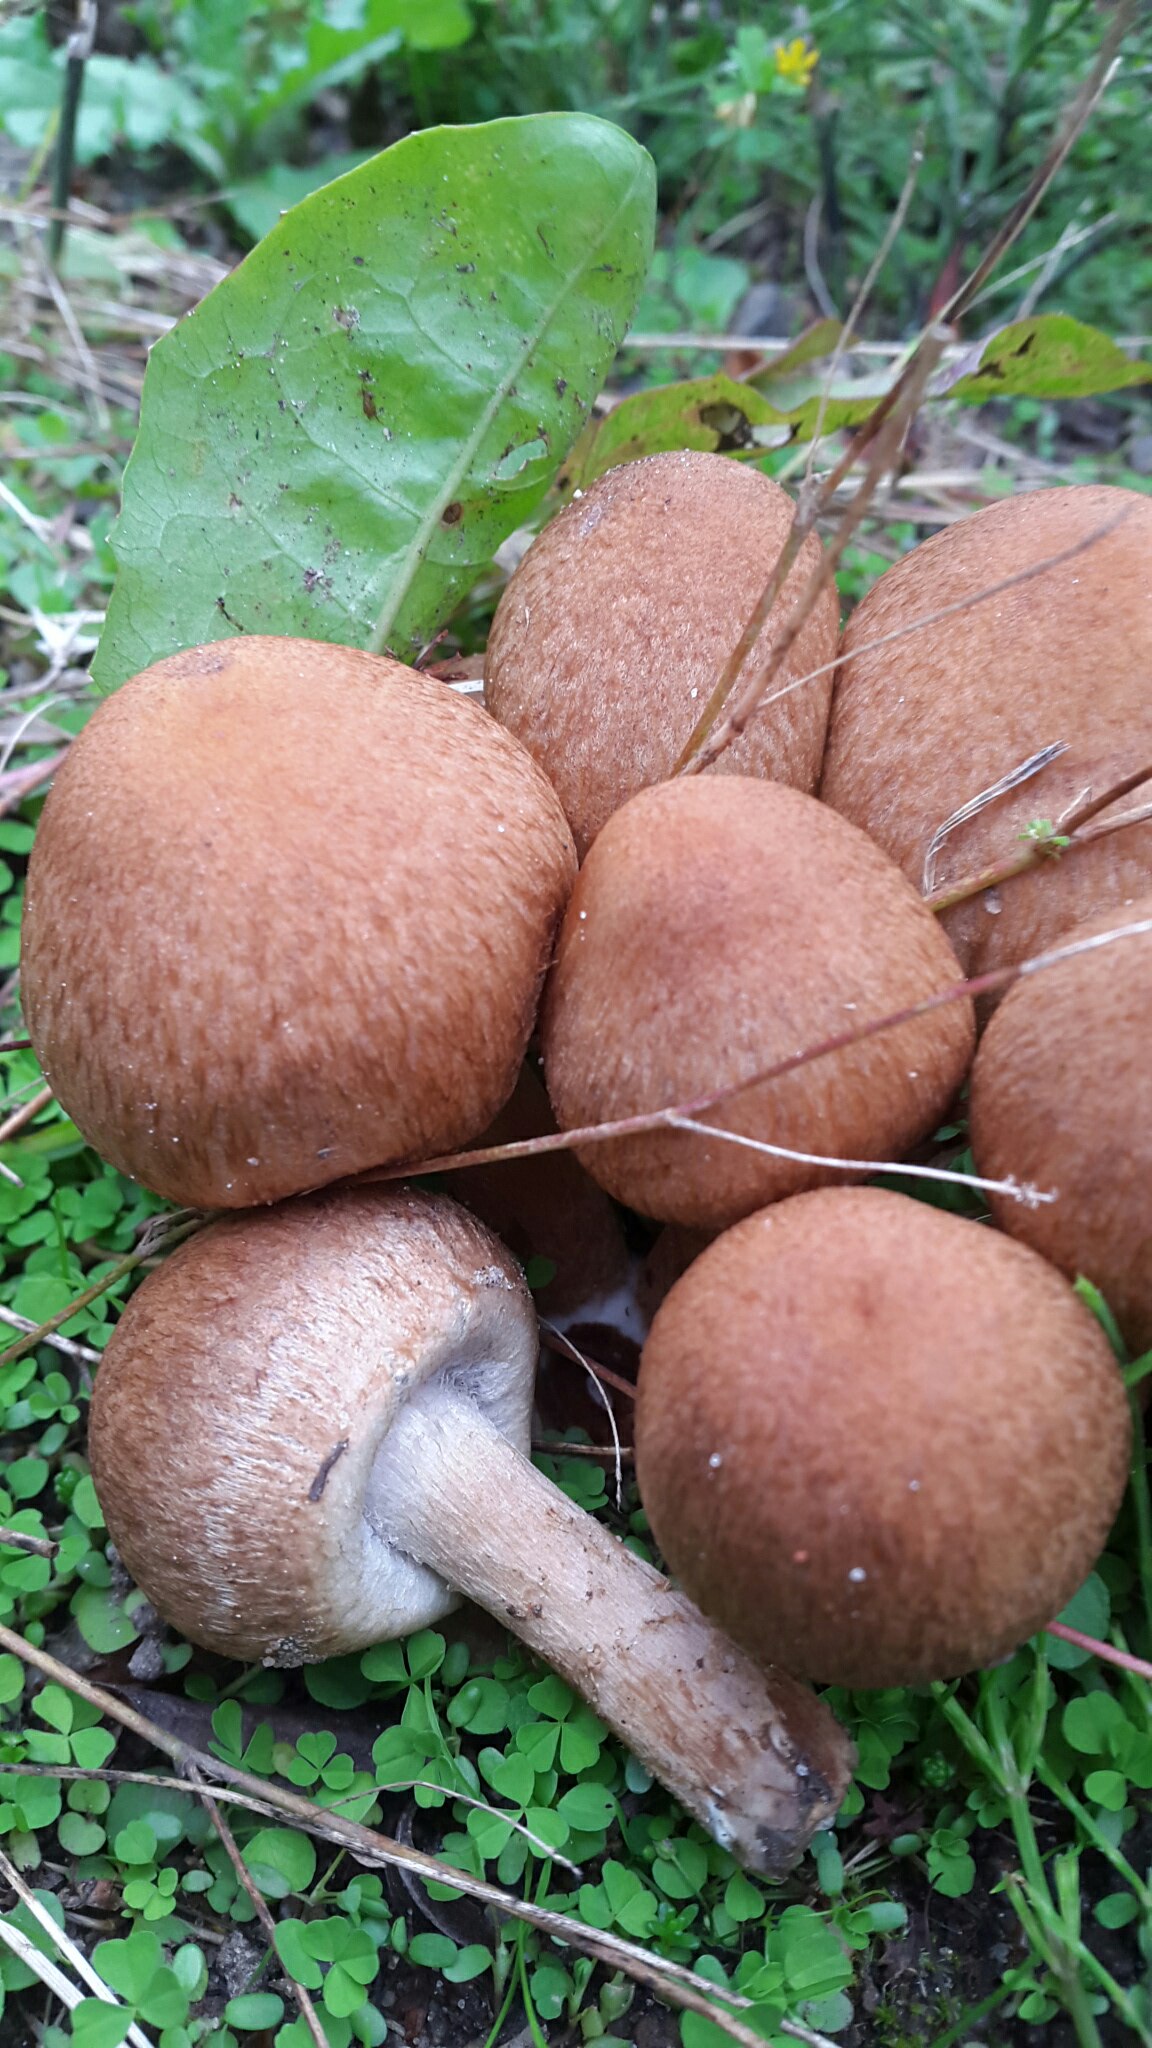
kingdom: Fungi
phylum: Basidiomycota
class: Agaricomycetes
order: Agaricales
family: Psathyrellaceae
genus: Lacrymaria
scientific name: Lacrymaria lacrymabunda
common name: grædende mørkhat
